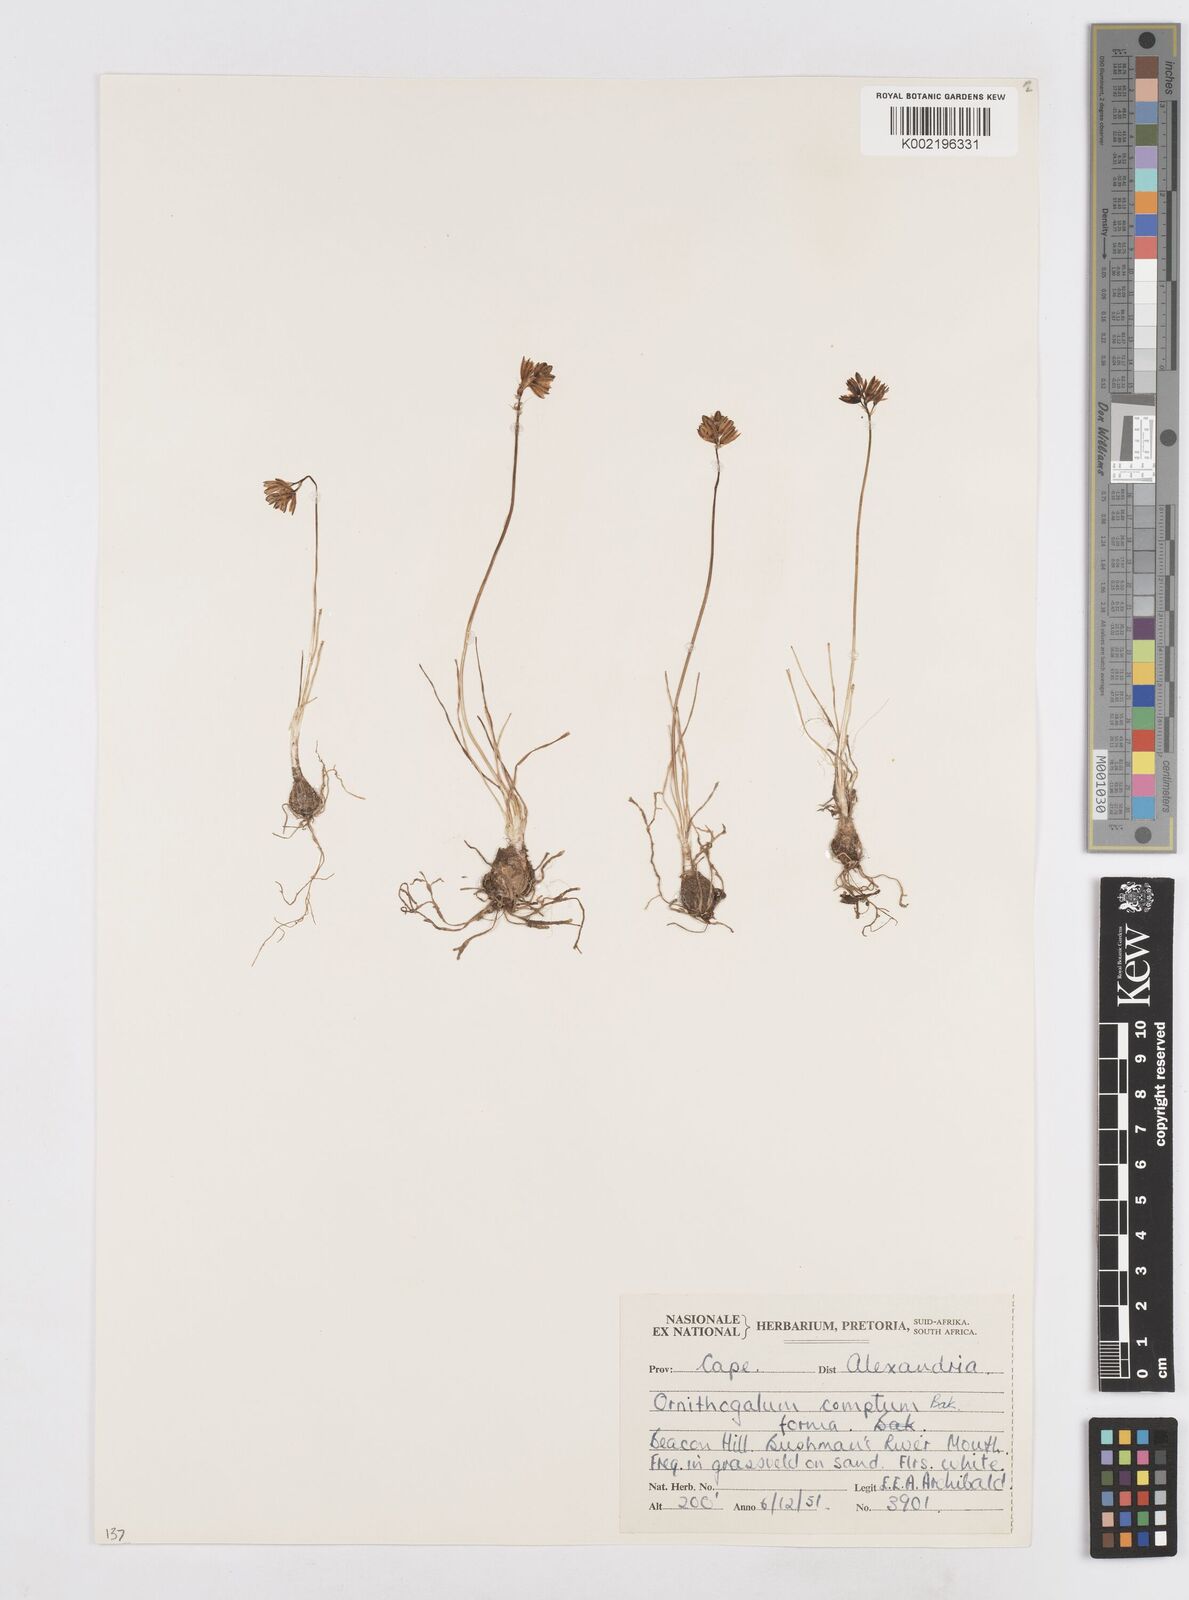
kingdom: Plantae
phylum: Tracheophyta
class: Liliopsida
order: Asparagales
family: Asparagaceae
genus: Ornithogalum
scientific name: Ornithogalum juncifolium
